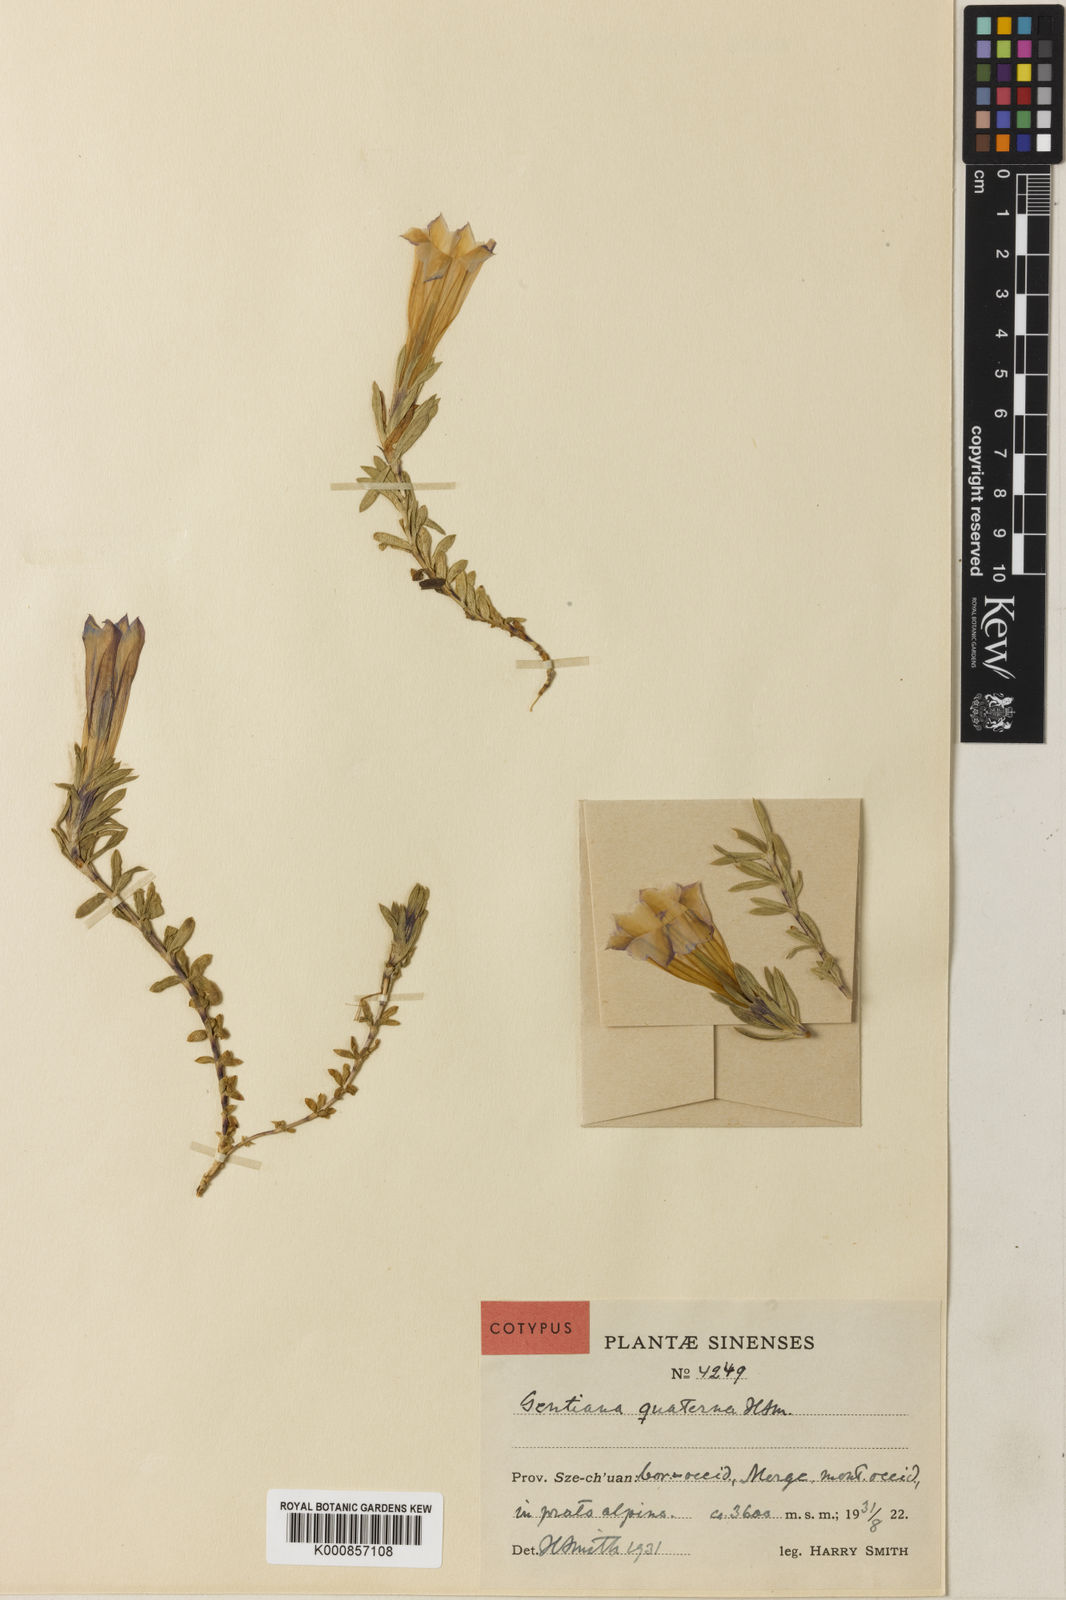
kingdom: Plantae
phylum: Tracheophyta
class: Magnoliopsida
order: Gentianales
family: Gentianaceae
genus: Gentiana
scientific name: Gentiana tetraphylla
